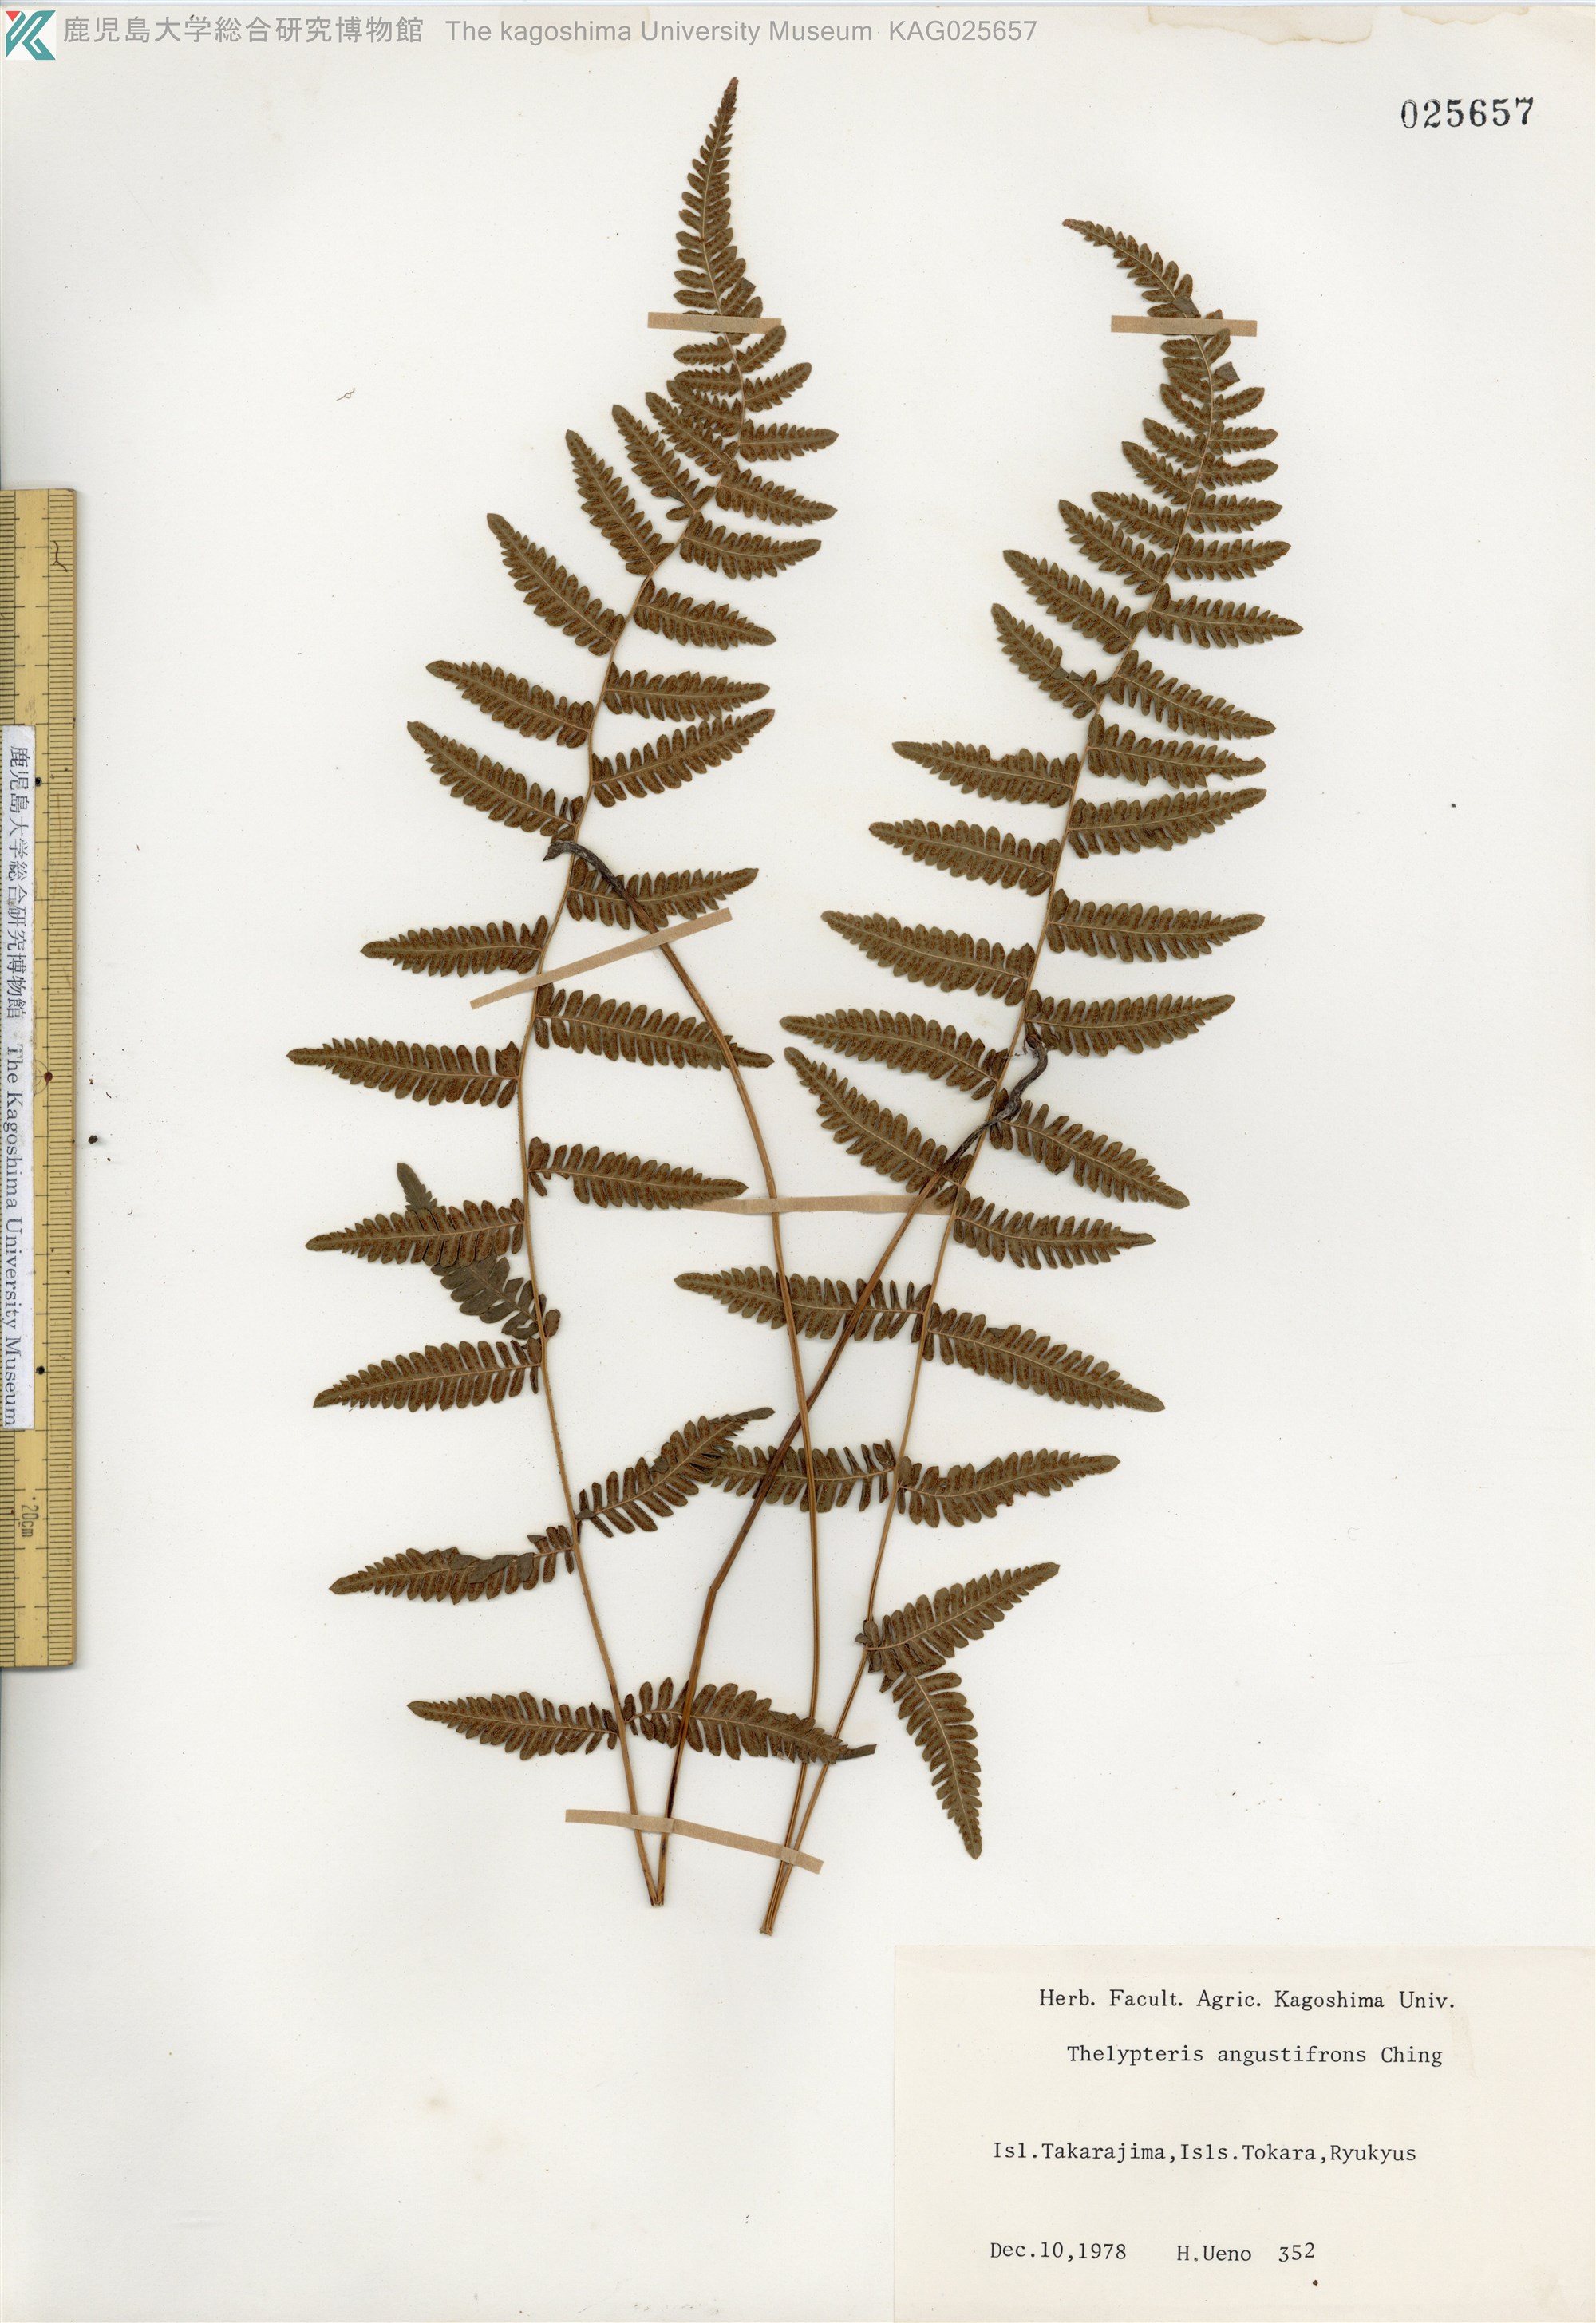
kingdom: Plantae
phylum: Tracheophyta
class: Polypodiopsida
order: Polypodiales
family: Thelypteridaceae
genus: Amauropelta
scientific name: Amauropelta angustifrons
